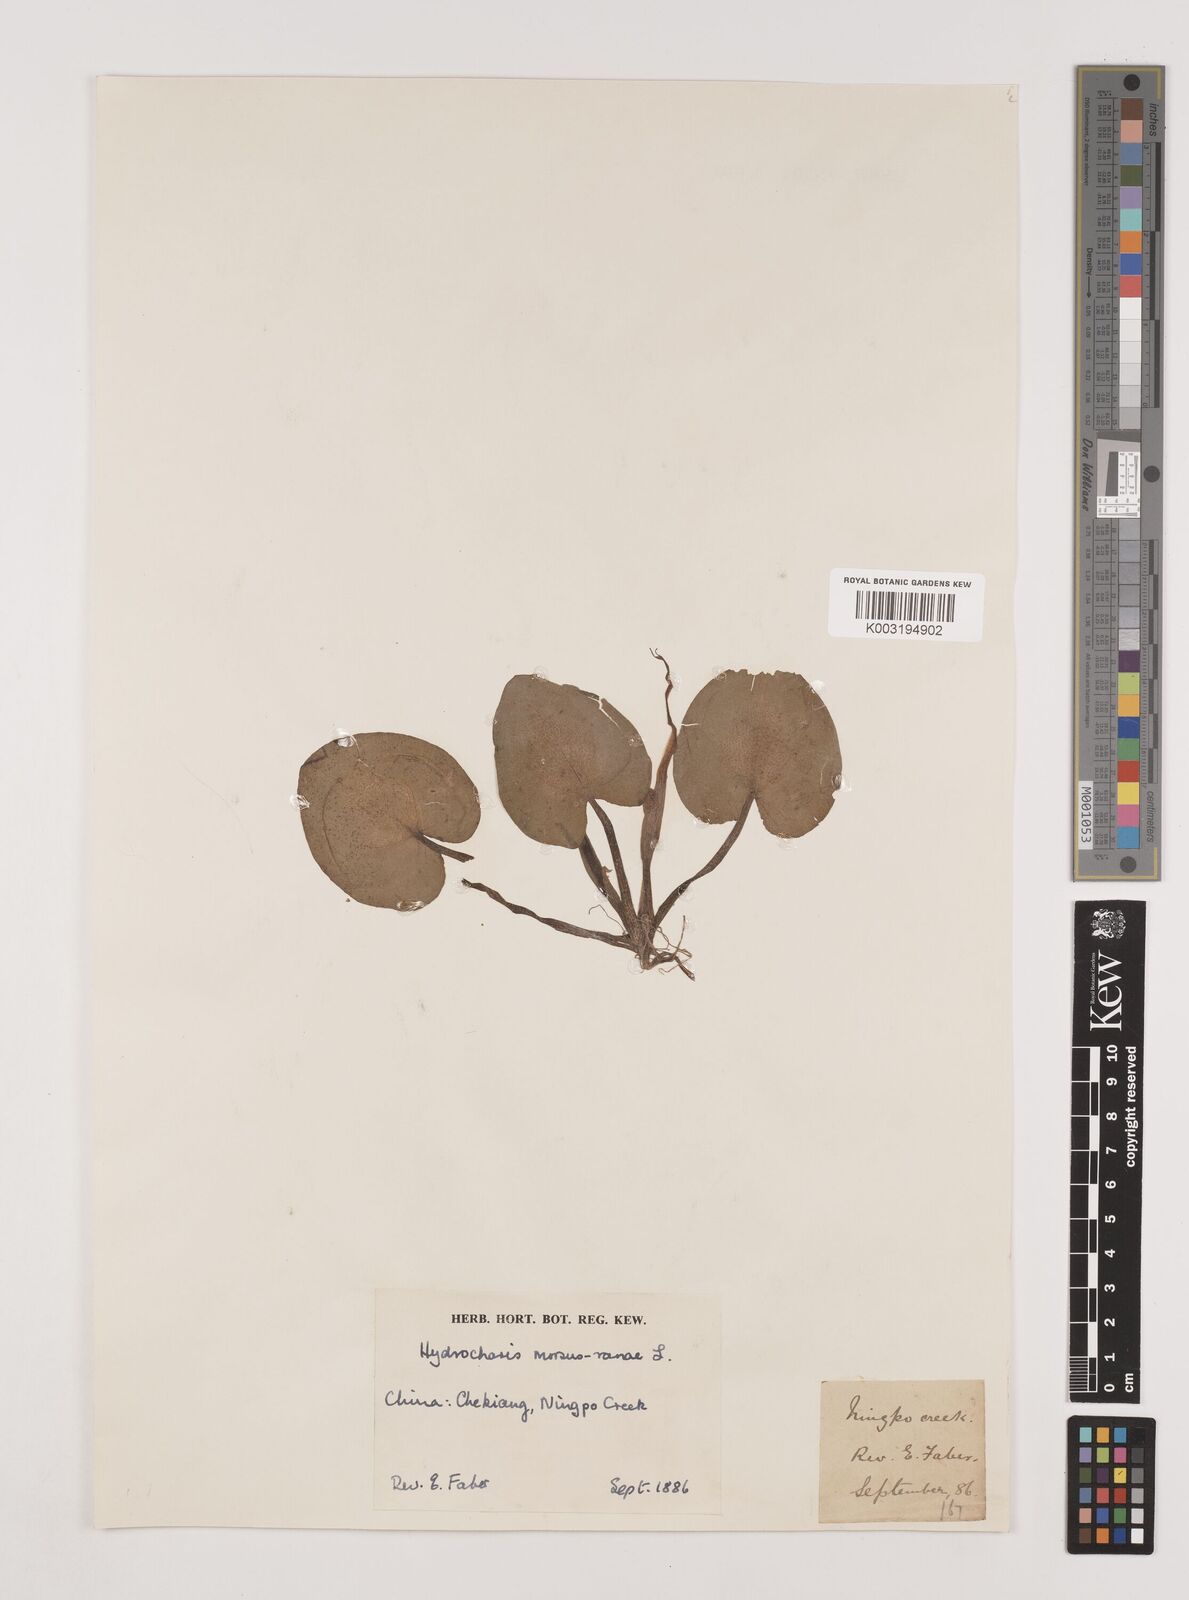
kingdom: Plantae
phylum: Tracheophyta
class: Liliopsida
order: Alismatales
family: Hydrocharitaceae
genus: Hydrocharis
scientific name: Hydrocharis dubia
